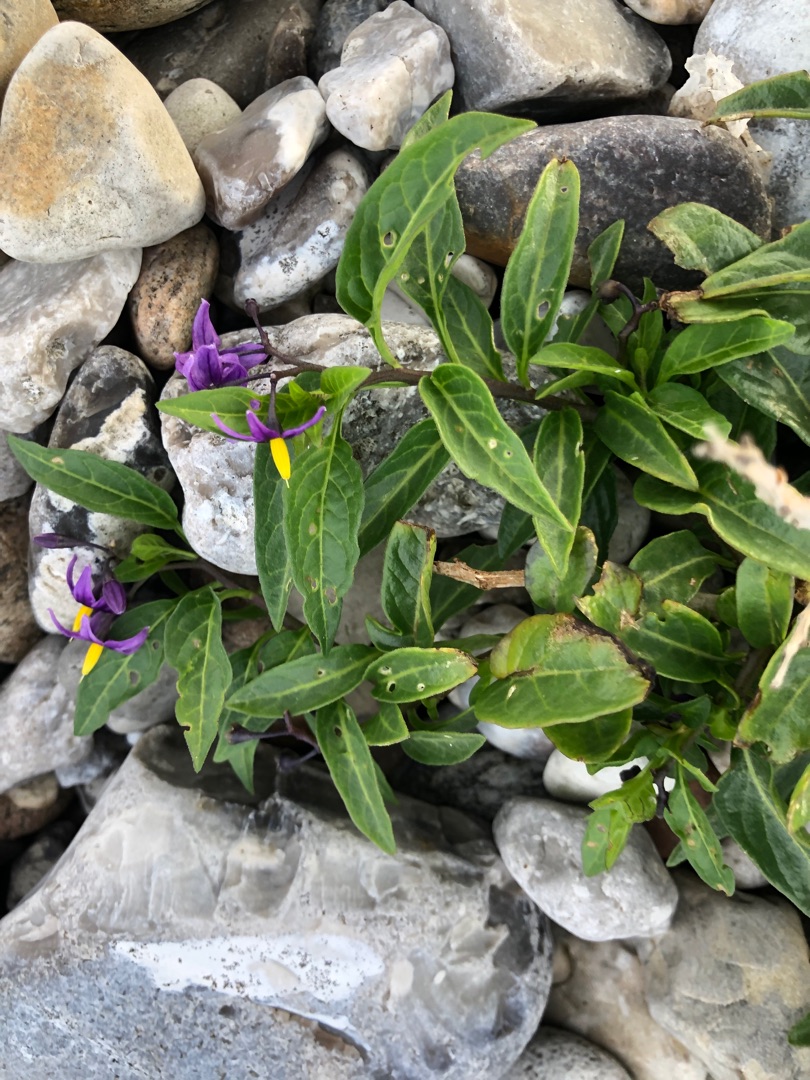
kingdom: Plantae
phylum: Tracheophyta
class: Magnoliopsida
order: Solanales
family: Solanaceae
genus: Solanum
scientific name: Solanum dulcamara
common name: Bittersød natskygge
